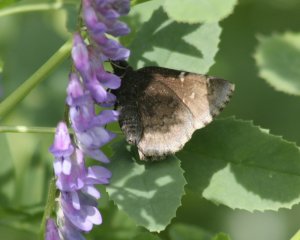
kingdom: Animalia
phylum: Arthropoda
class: Insecta
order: Lepidoptera
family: Hesperiidae
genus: Autochton
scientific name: Autochton
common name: Northern Cloudywing
